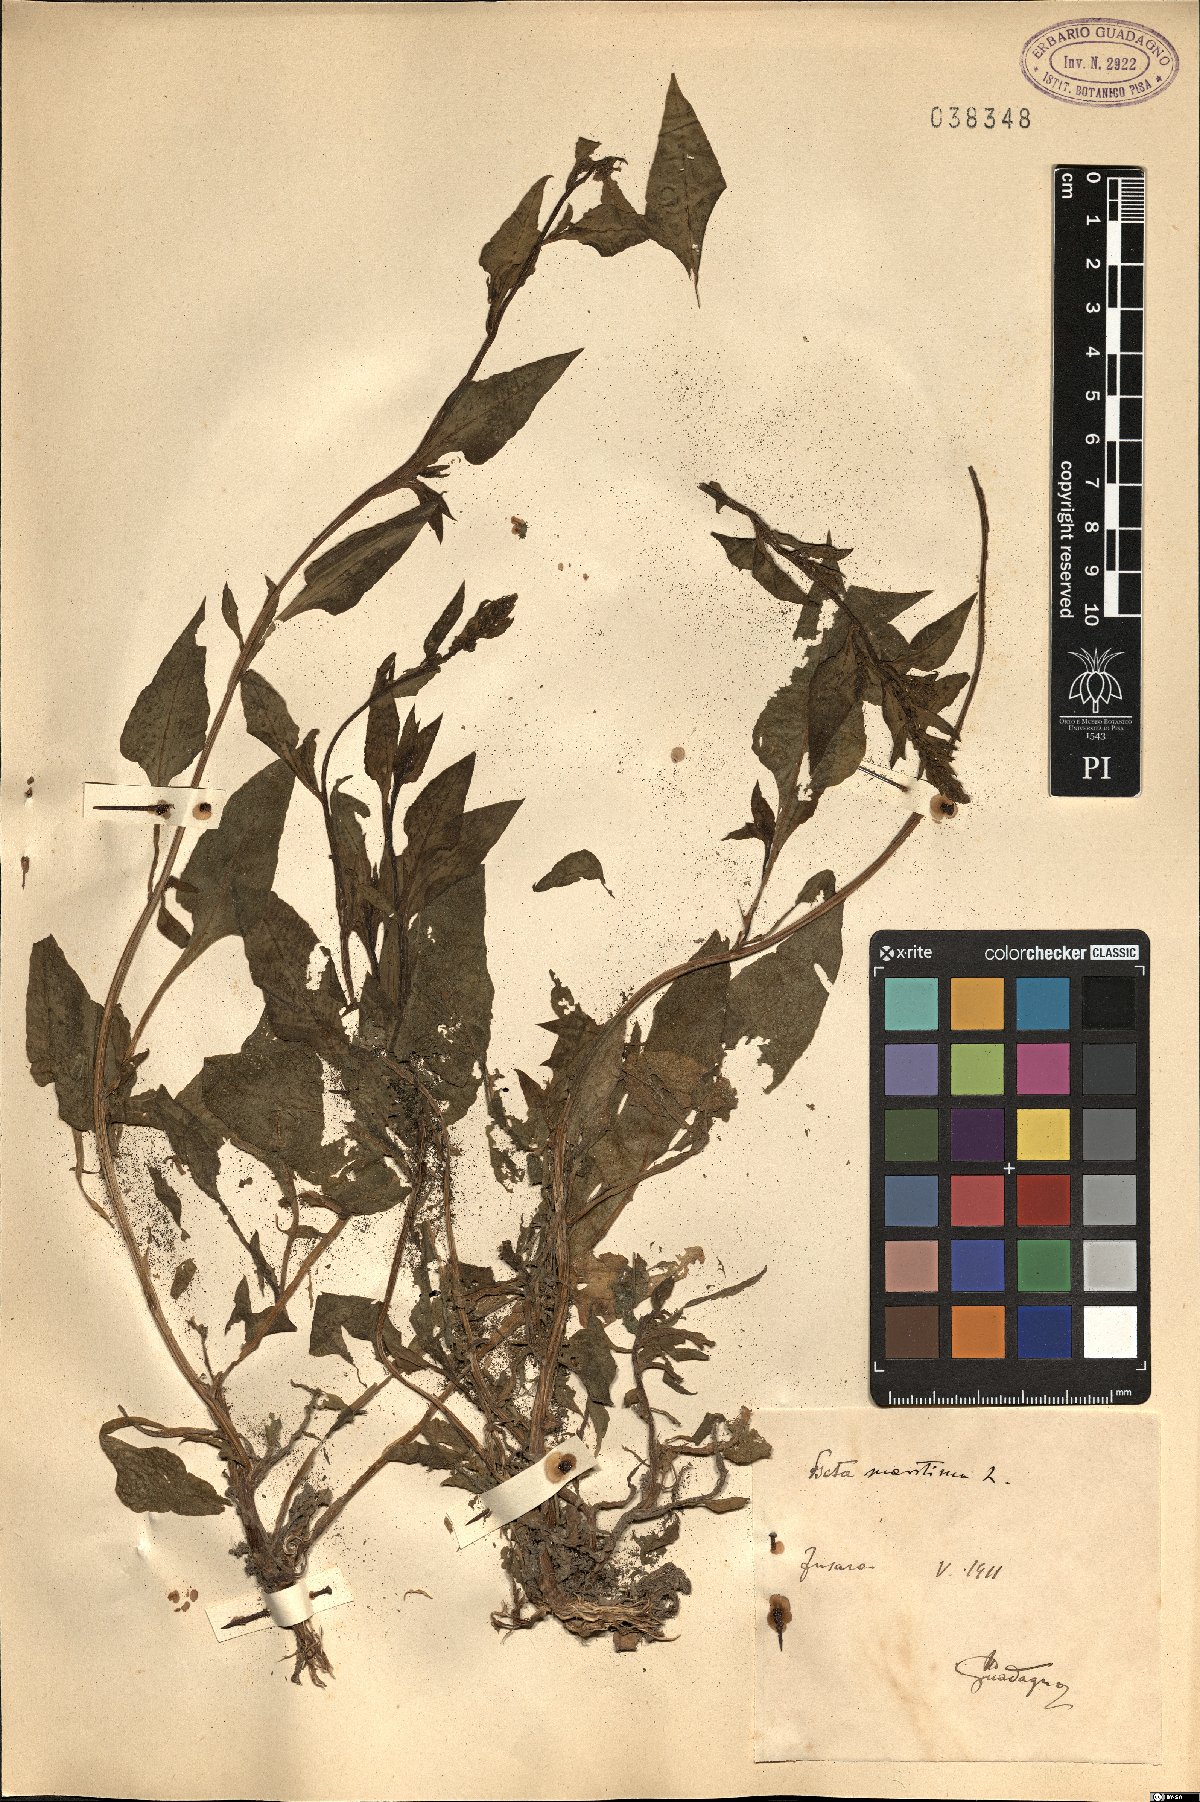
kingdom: Plantae
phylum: Tracheophyta
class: Magnoliopsida
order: Caryophyllales
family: Amaranthaceae
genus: Beta
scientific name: Beta maritima
